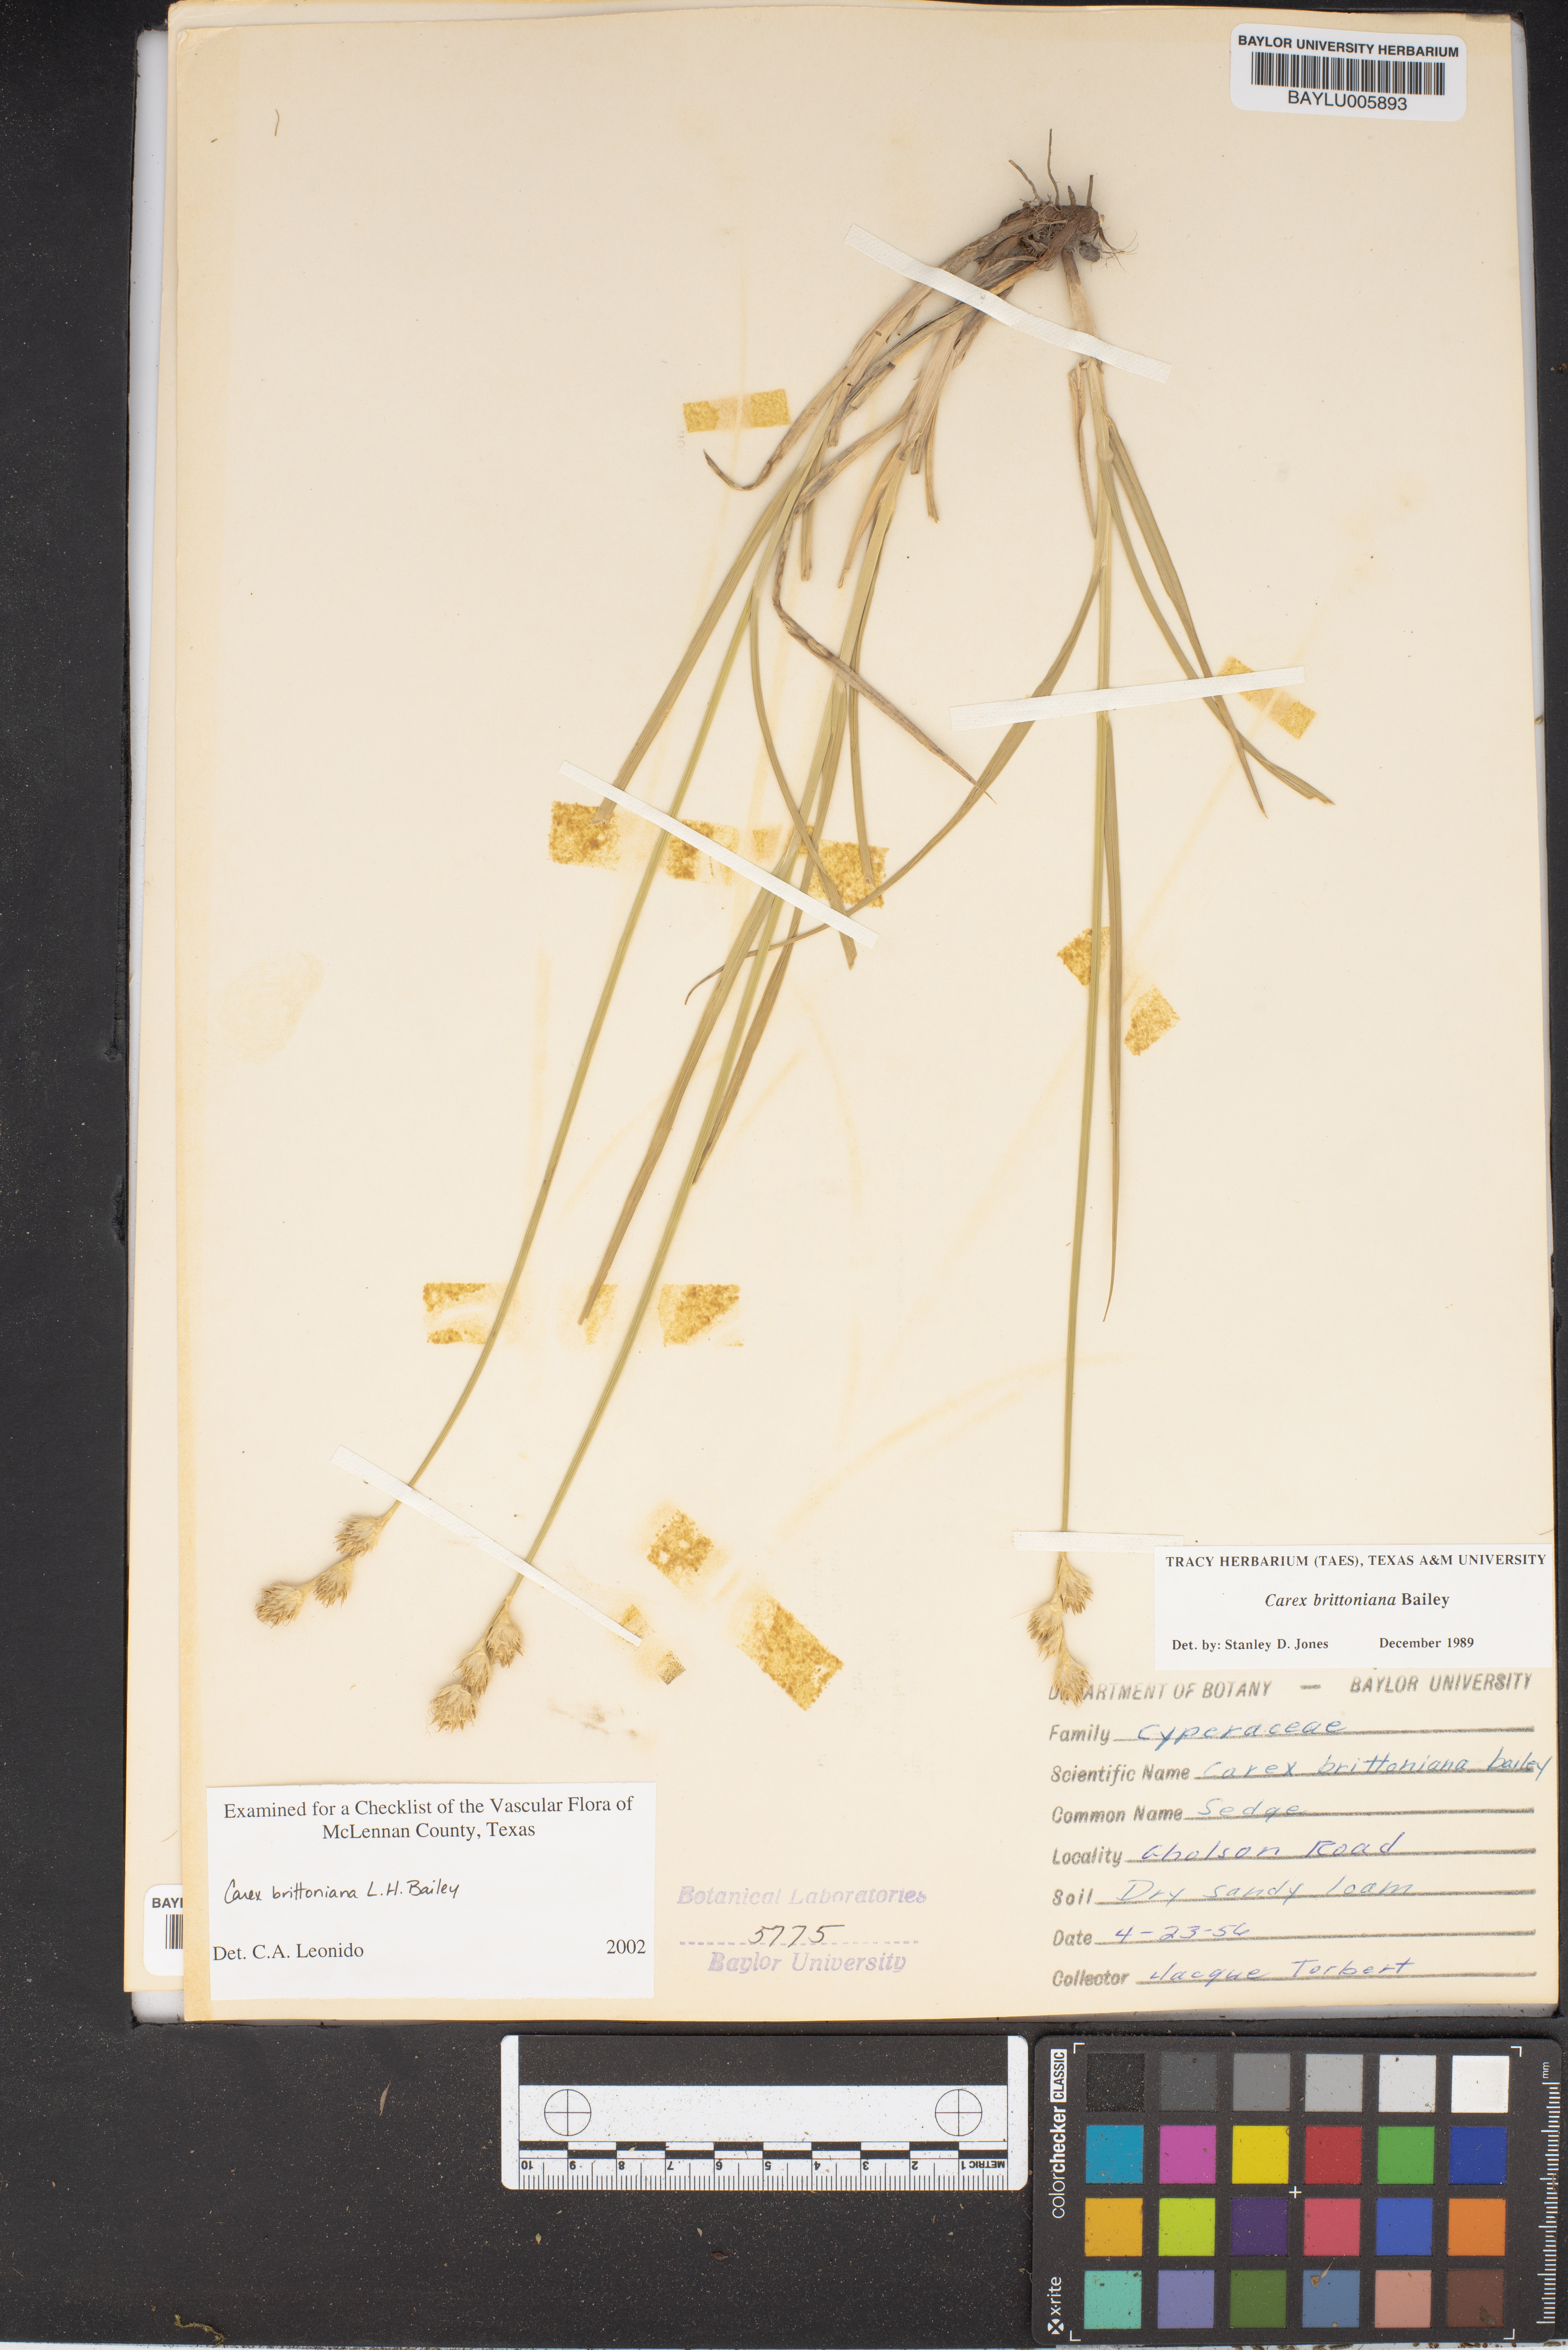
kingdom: Plantae
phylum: Tracheophyta
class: Liliopsida
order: Poales
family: Cyperaceae
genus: Carex
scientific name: Carex tetrastachya
